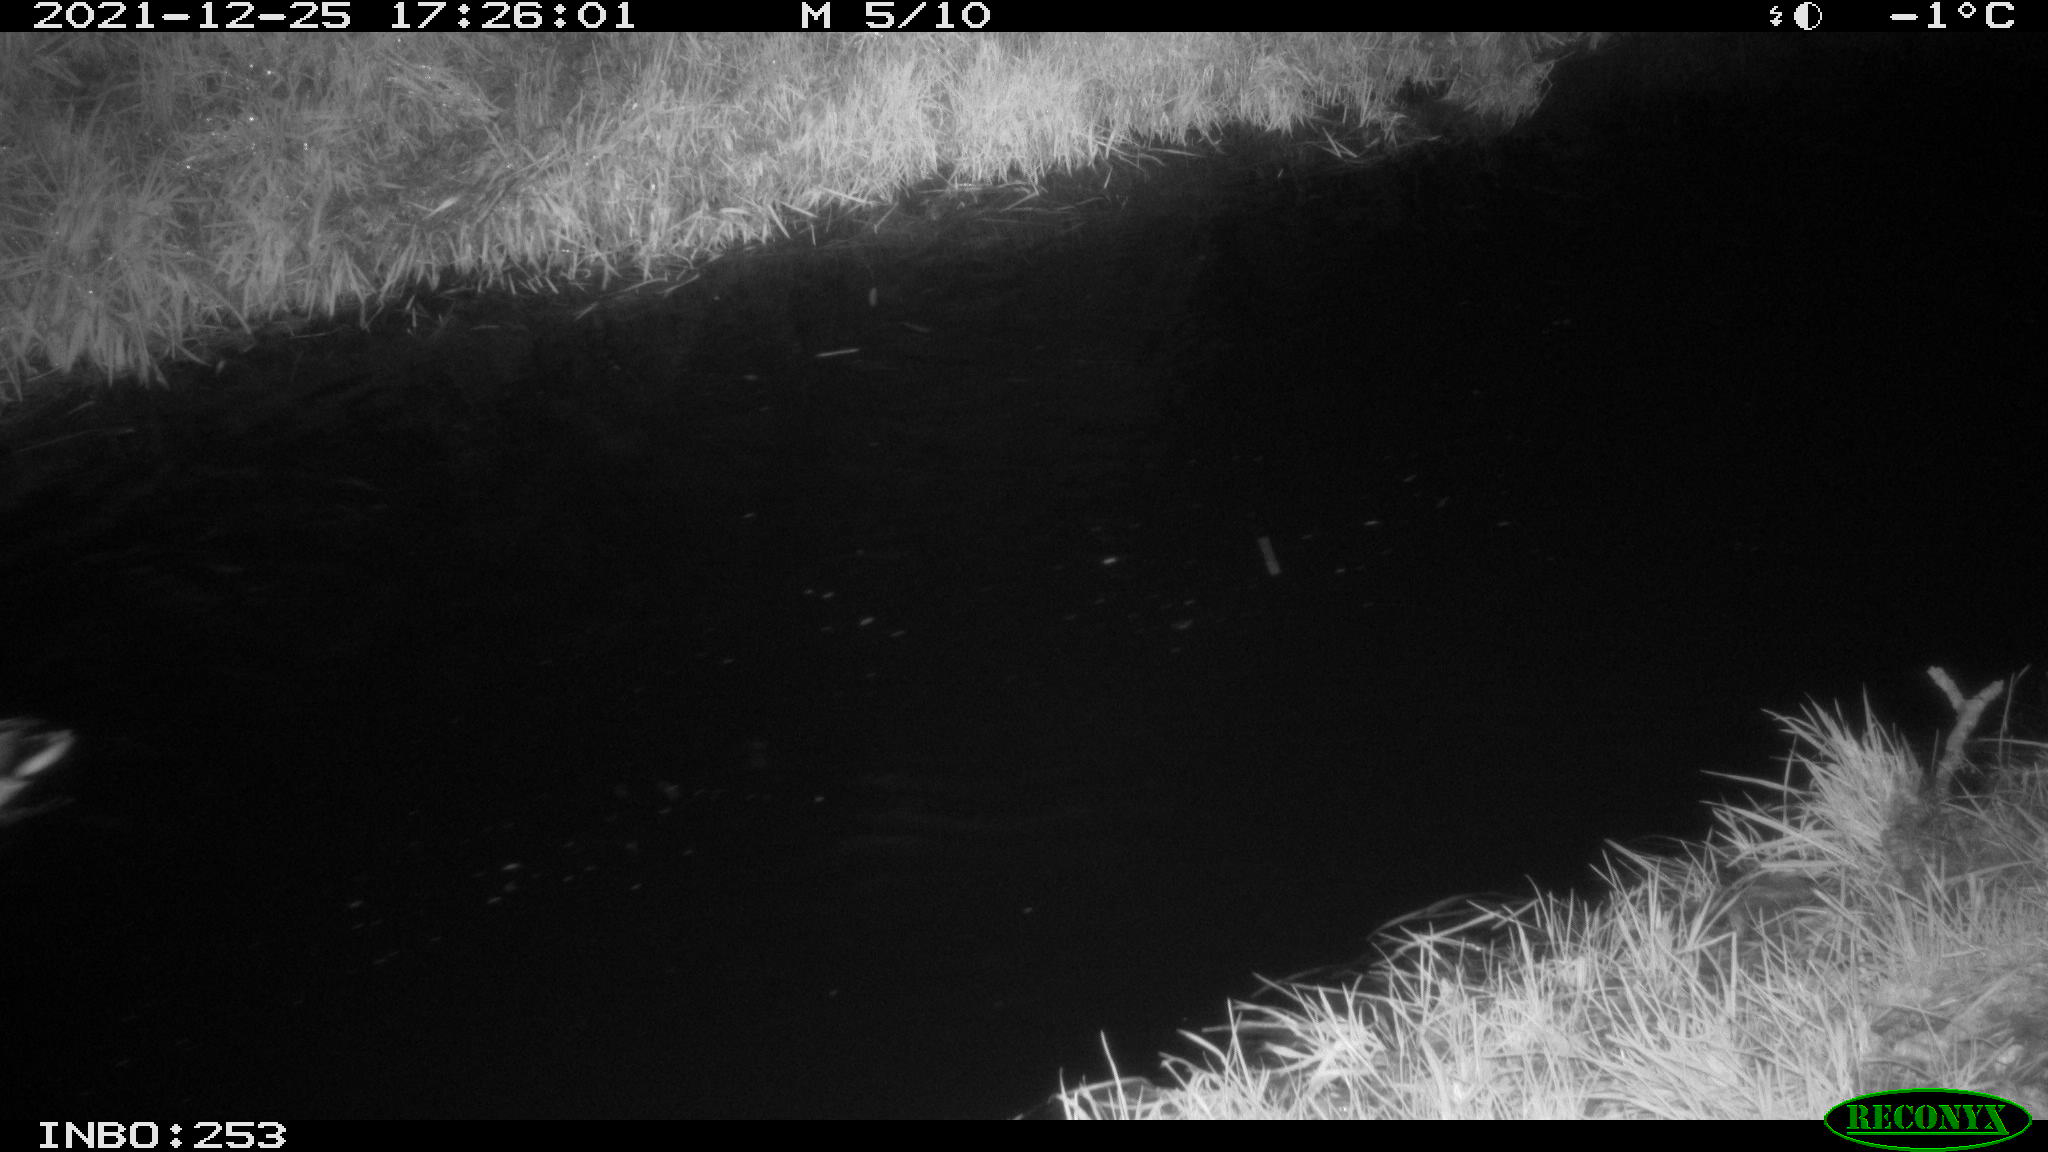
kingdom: Animalia
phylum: Chordata
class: Aves
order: Anseriformes
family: Anatidae
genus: Anas
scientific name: Anas
